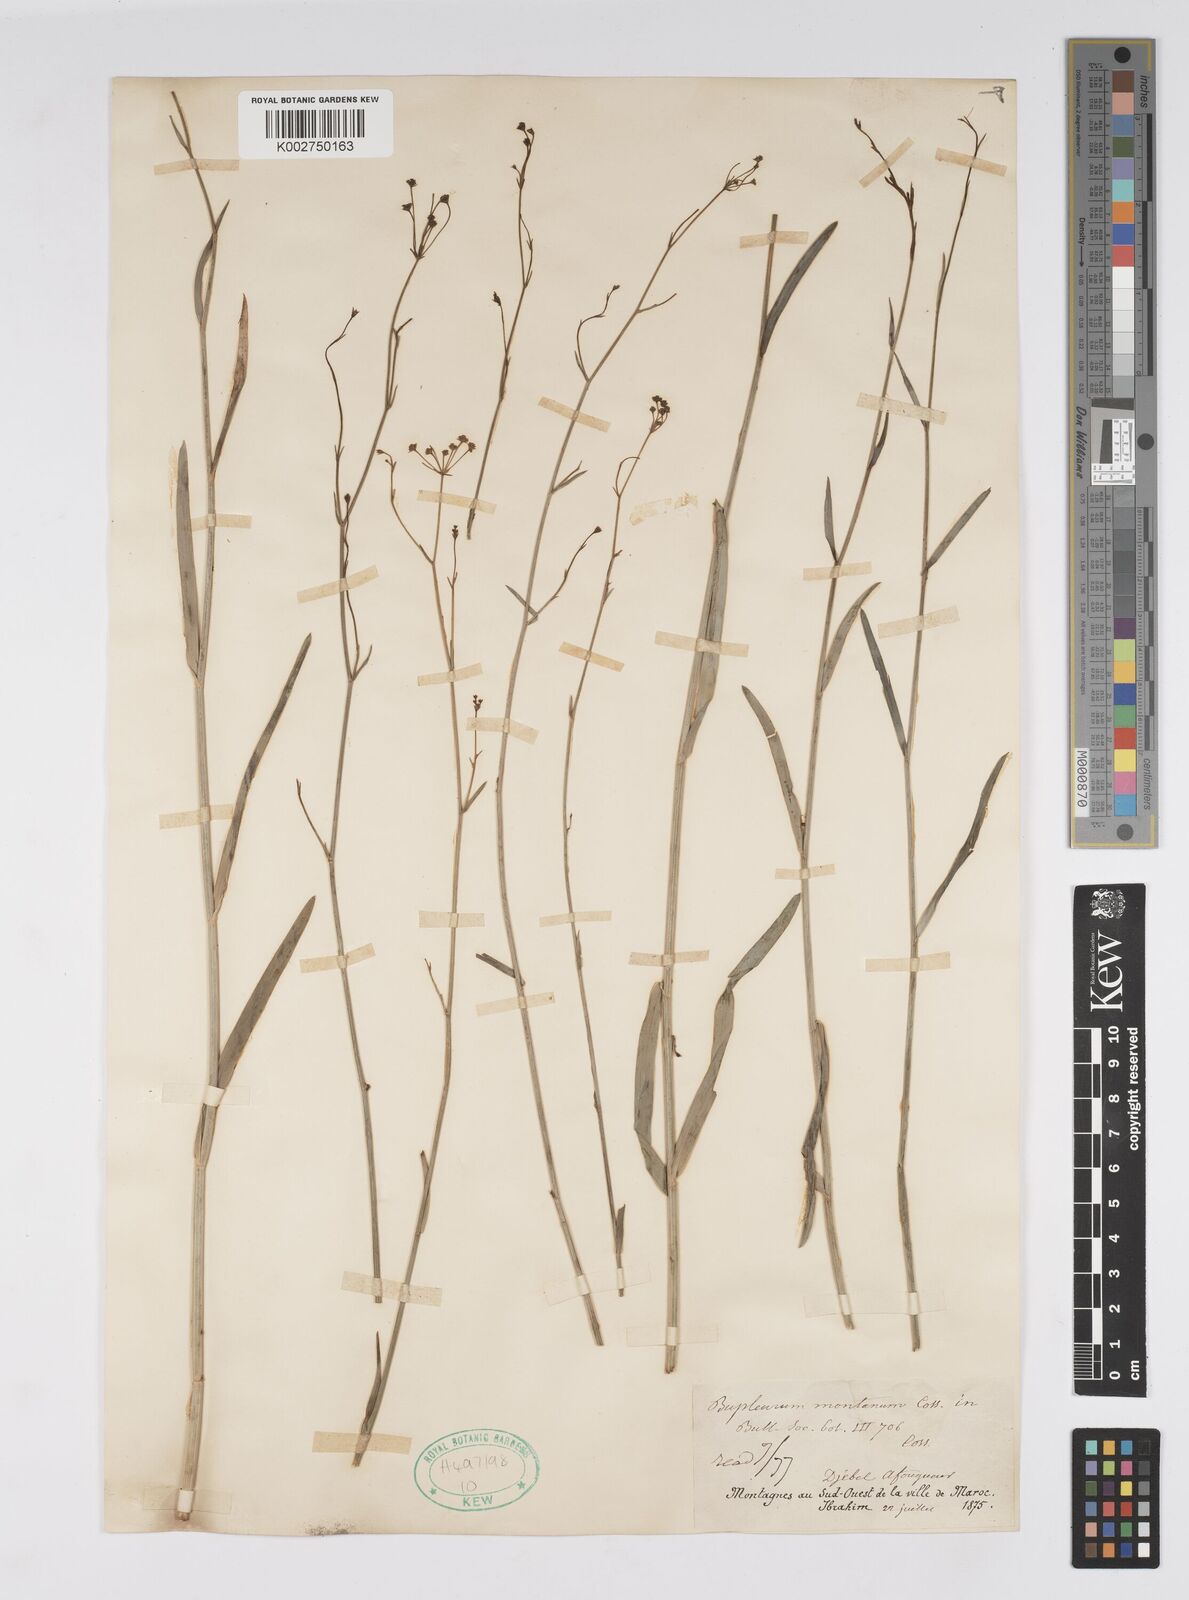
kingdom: Plantae
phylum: Tracheophyta
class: Magnoliopsida
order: Apiales
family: Apiaceae
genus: Bupleurum
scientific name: Bupleurum montanum
